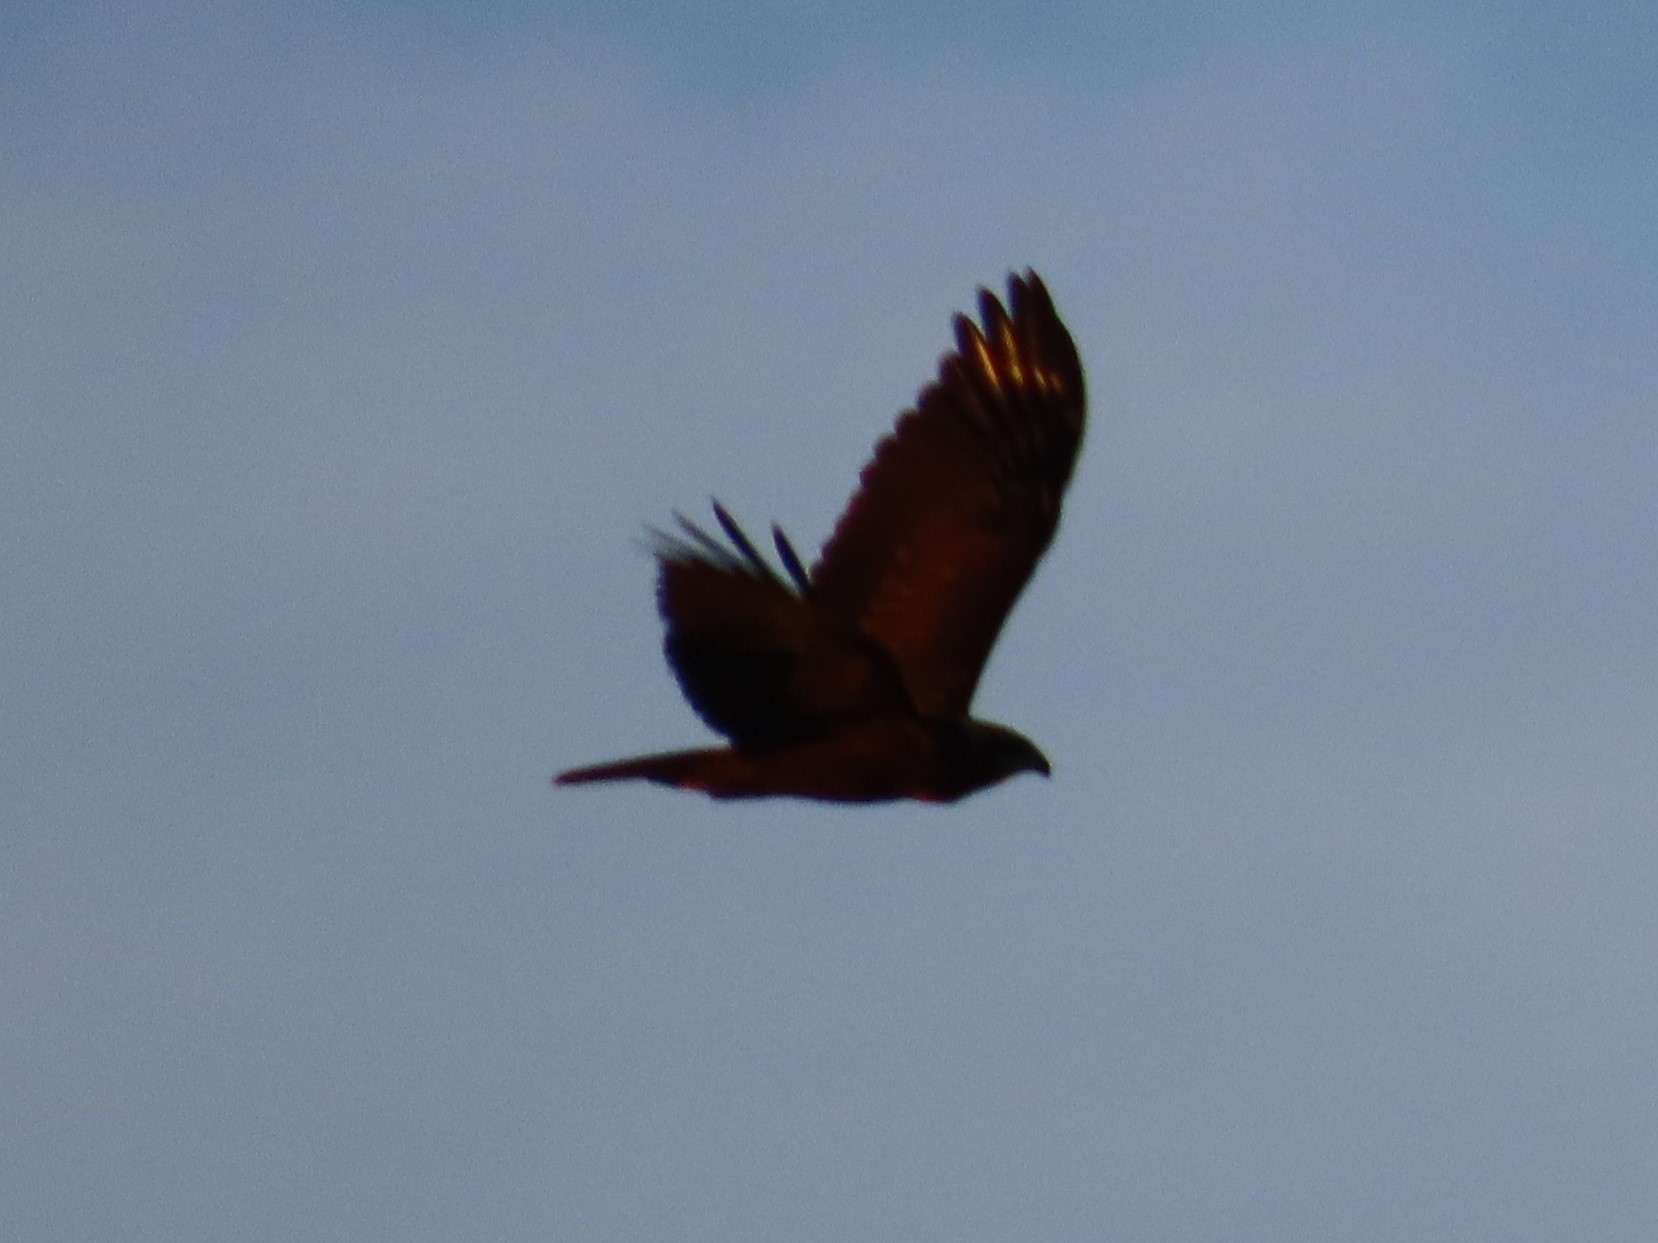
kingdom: Animalia
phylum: Chordata
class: Aves
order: Accipitriformes
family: Accipitridae
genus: Circus
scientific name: Circus aeruginosus
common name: Rørhøg
